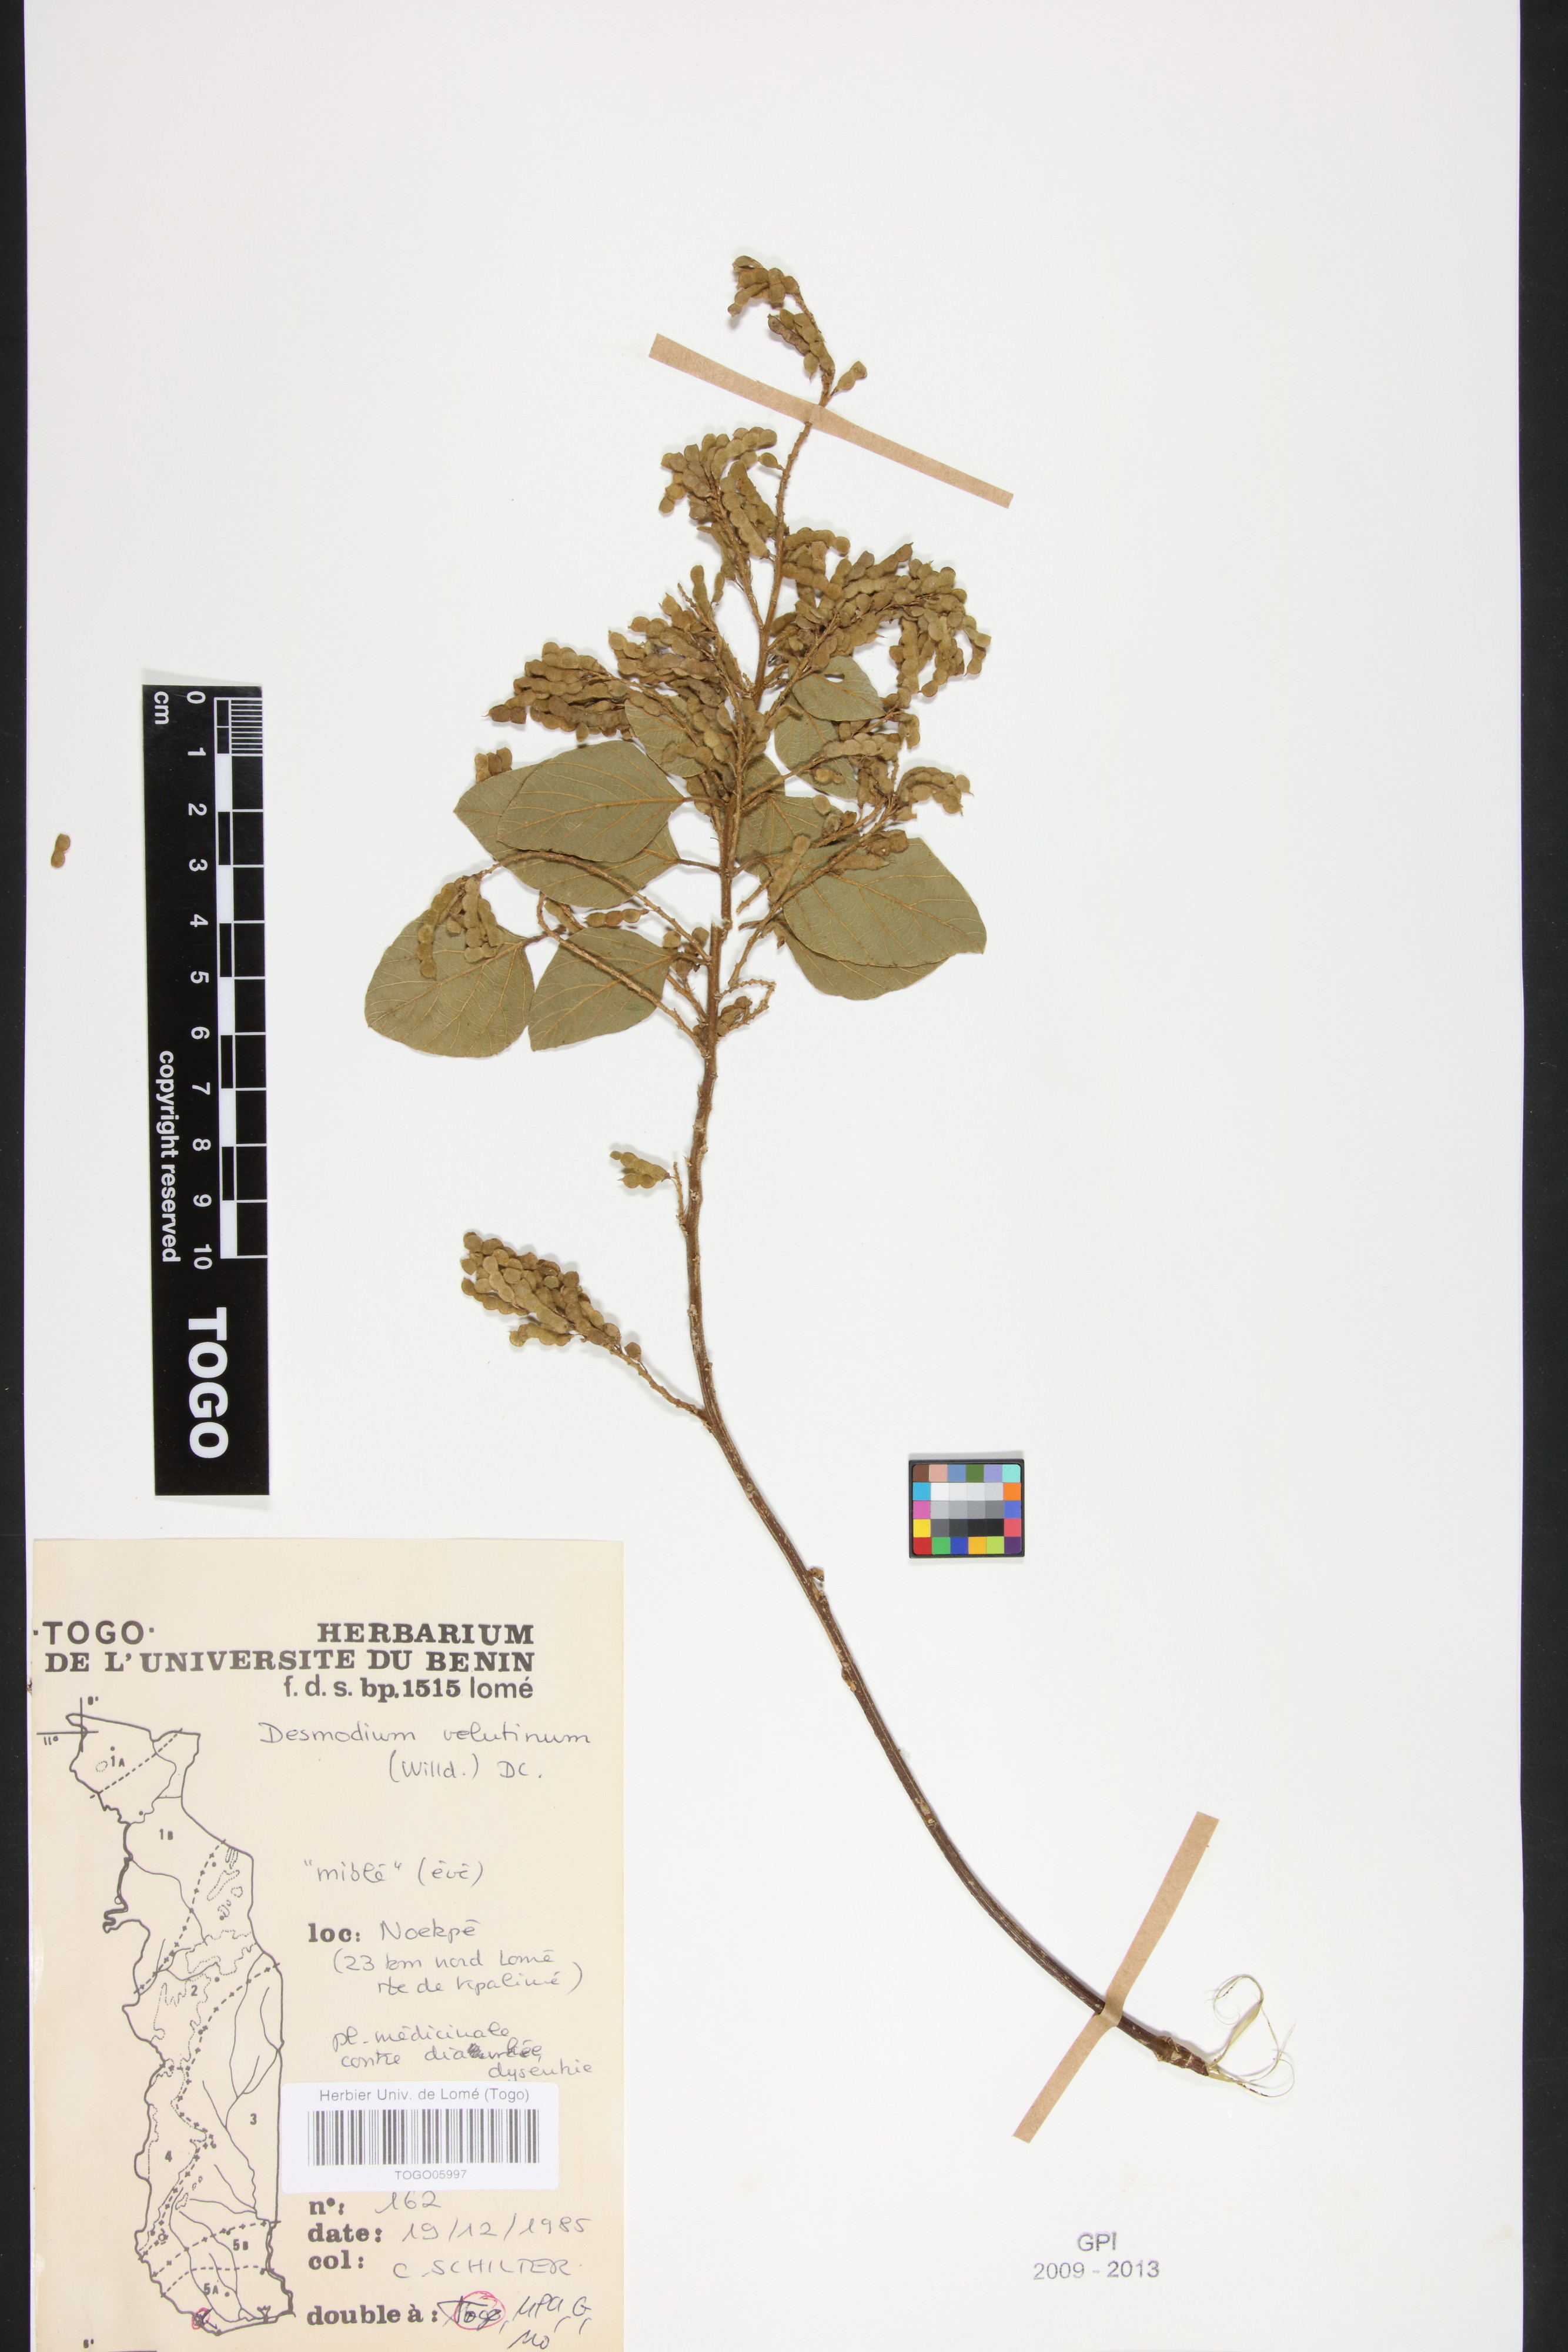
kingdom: Plantae
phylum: Tracheophyta
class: Magnoliopsida
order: Fabales
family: Fabaceae
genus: Polhillides
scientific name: Polhillides velutina
